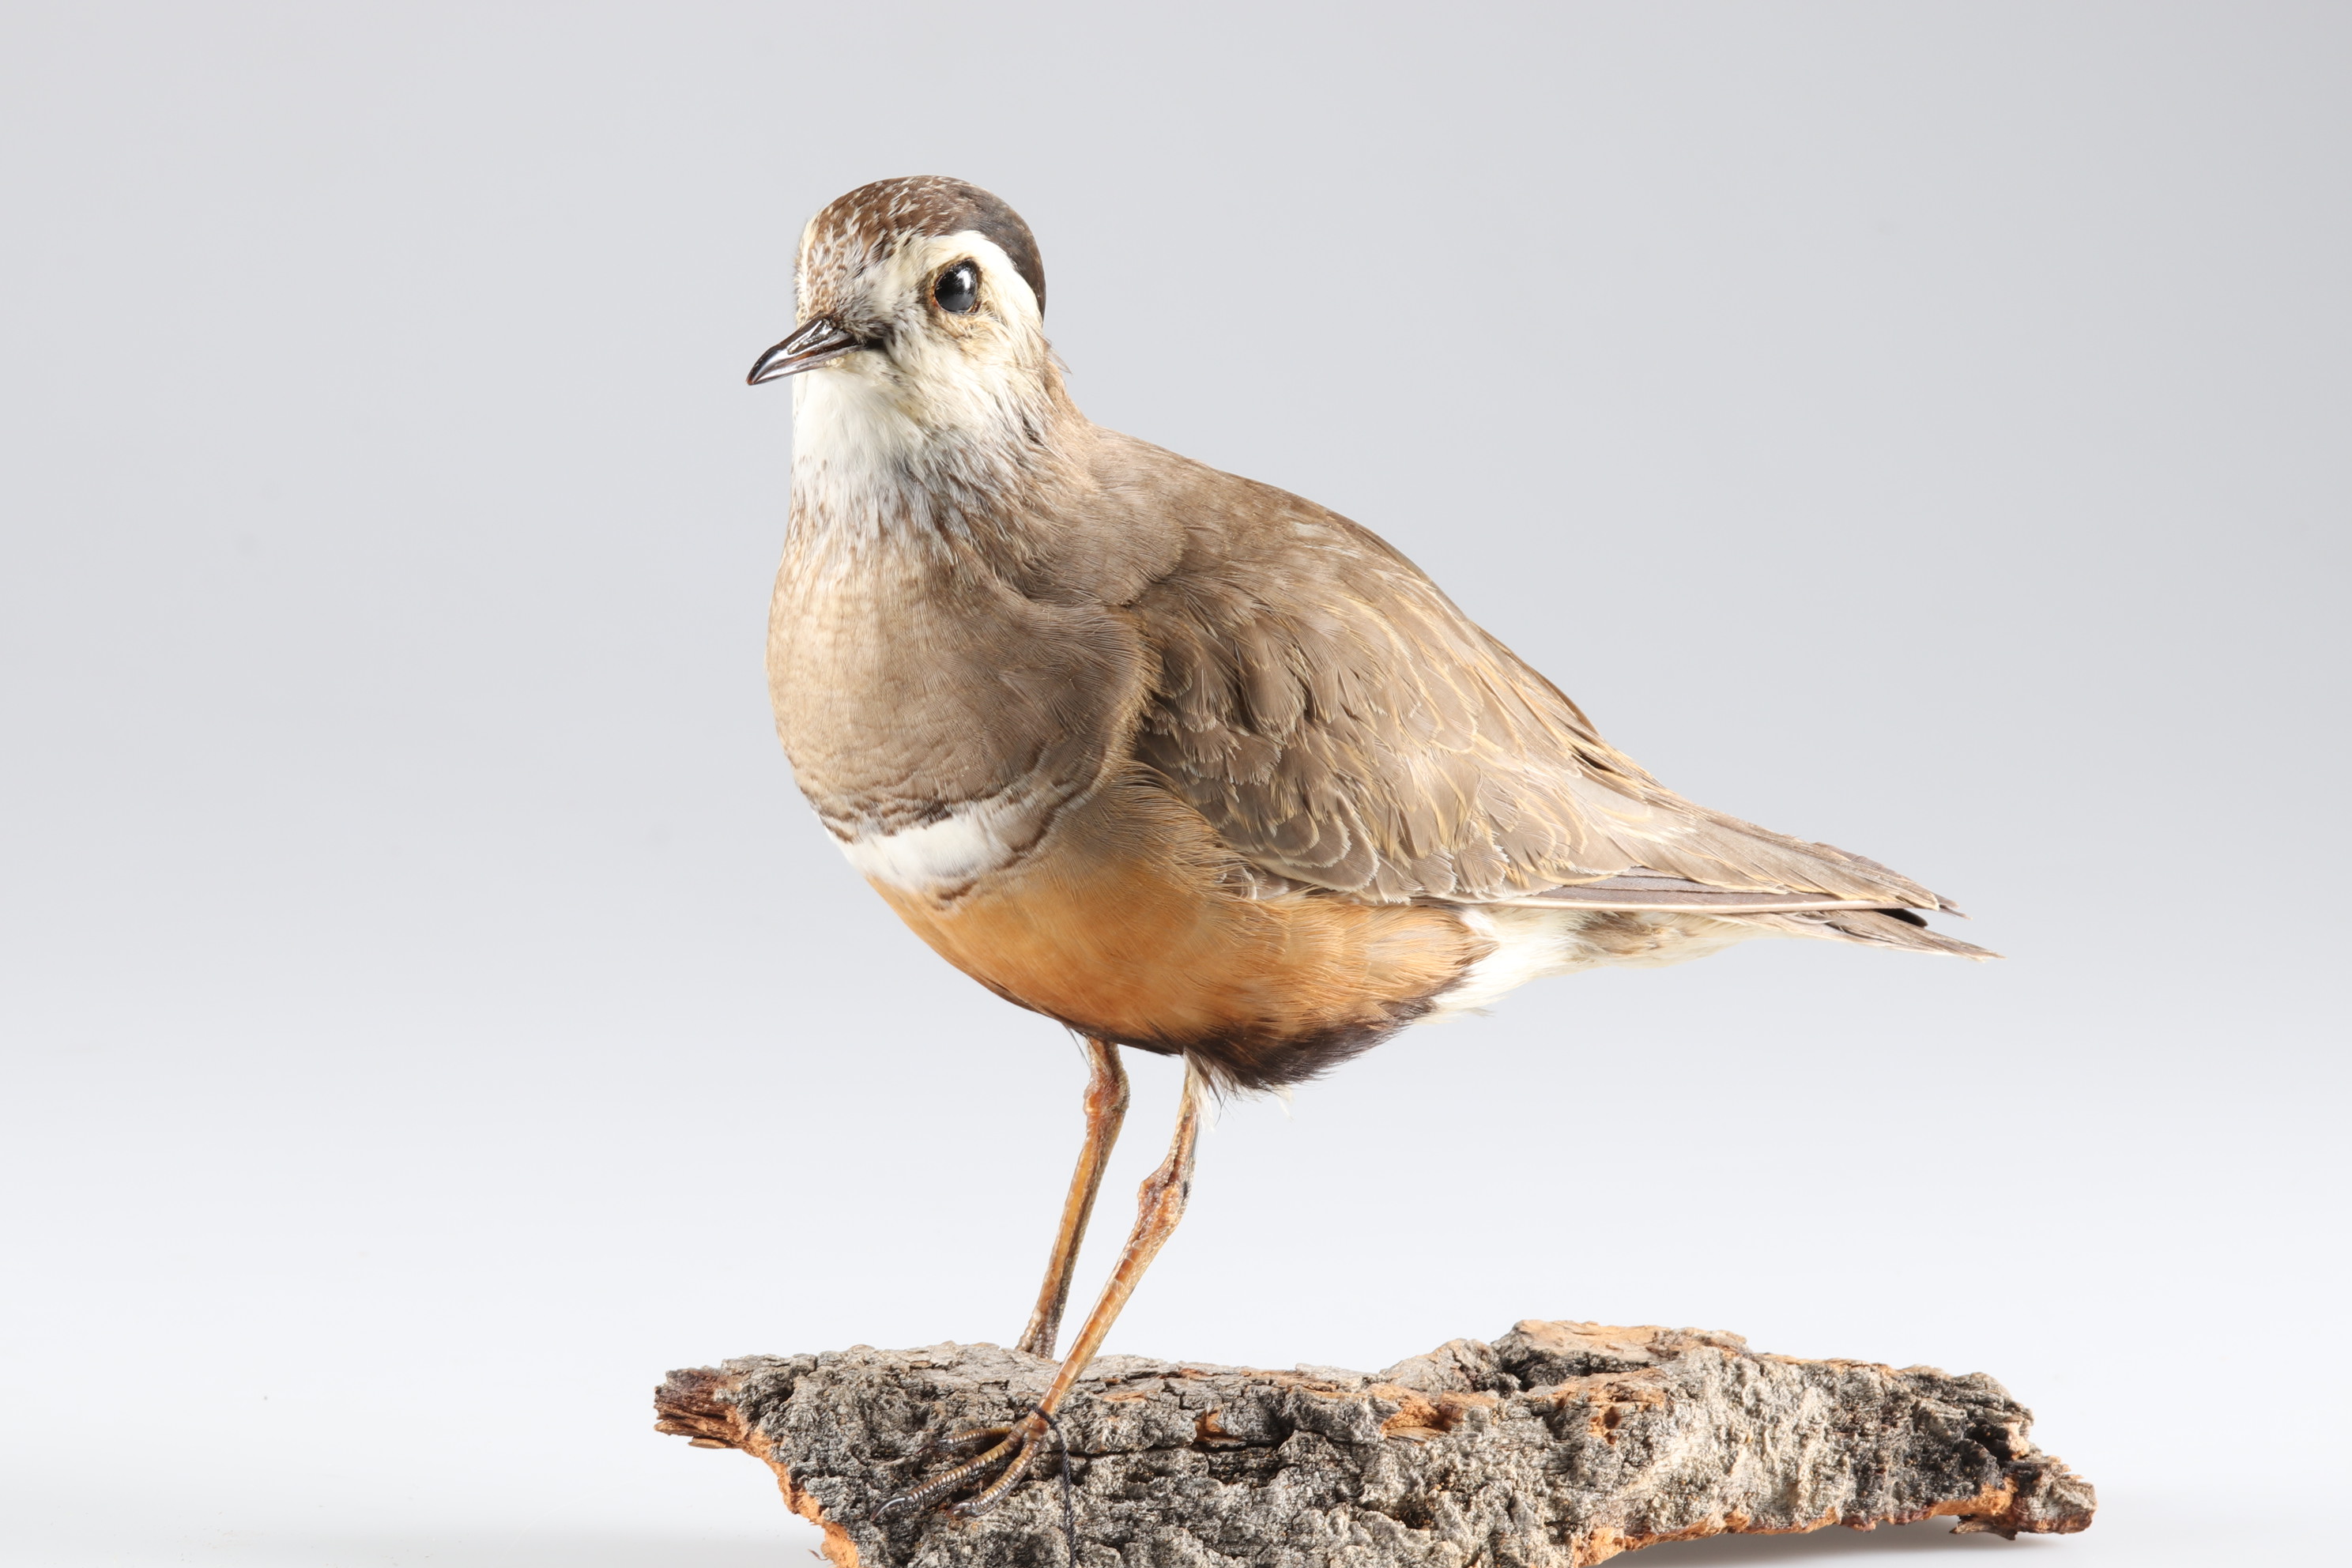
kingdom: Animalia
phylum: Chordata
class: Aves
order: Charadriiformes
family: Charadriidae
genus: Charadrius
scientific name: Charadrius morinellus
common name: Eurasian dotterel
